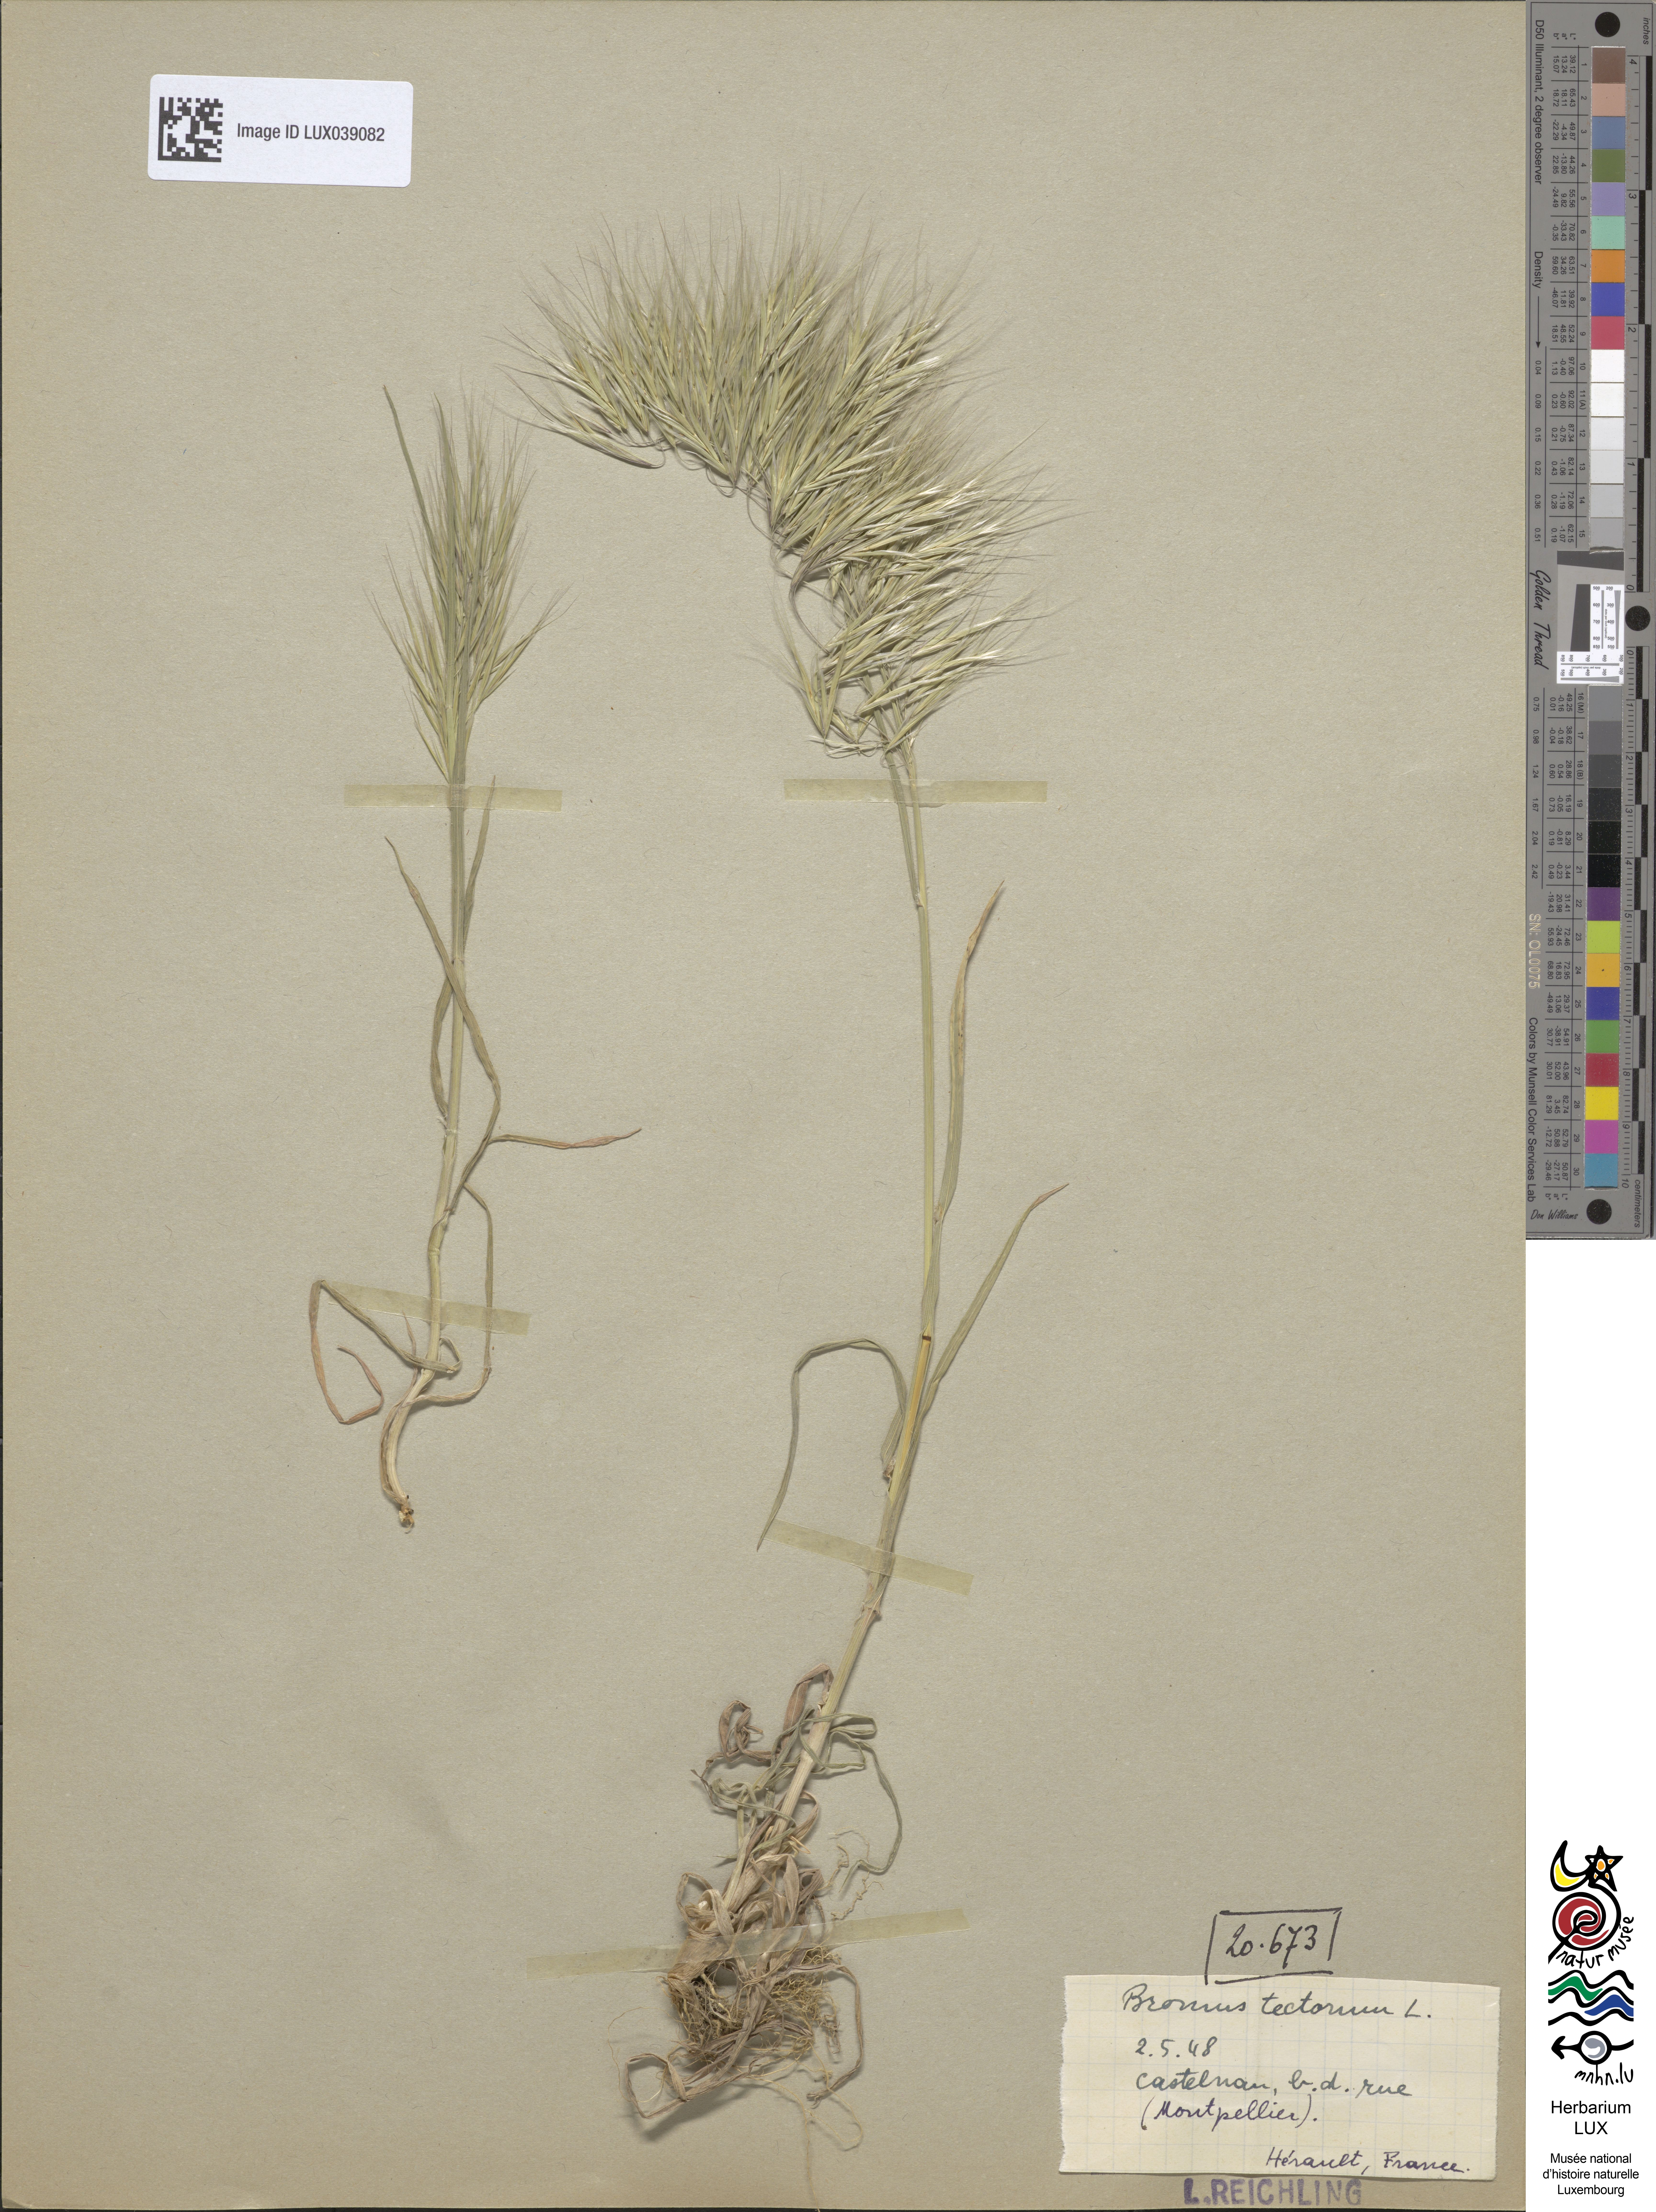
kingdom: Plantae
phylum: Tracheophyta
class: Liliopsida
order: Poales
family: Poaceae
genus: Bromus
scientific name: Bromus tectorum
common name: Cheatgrass
